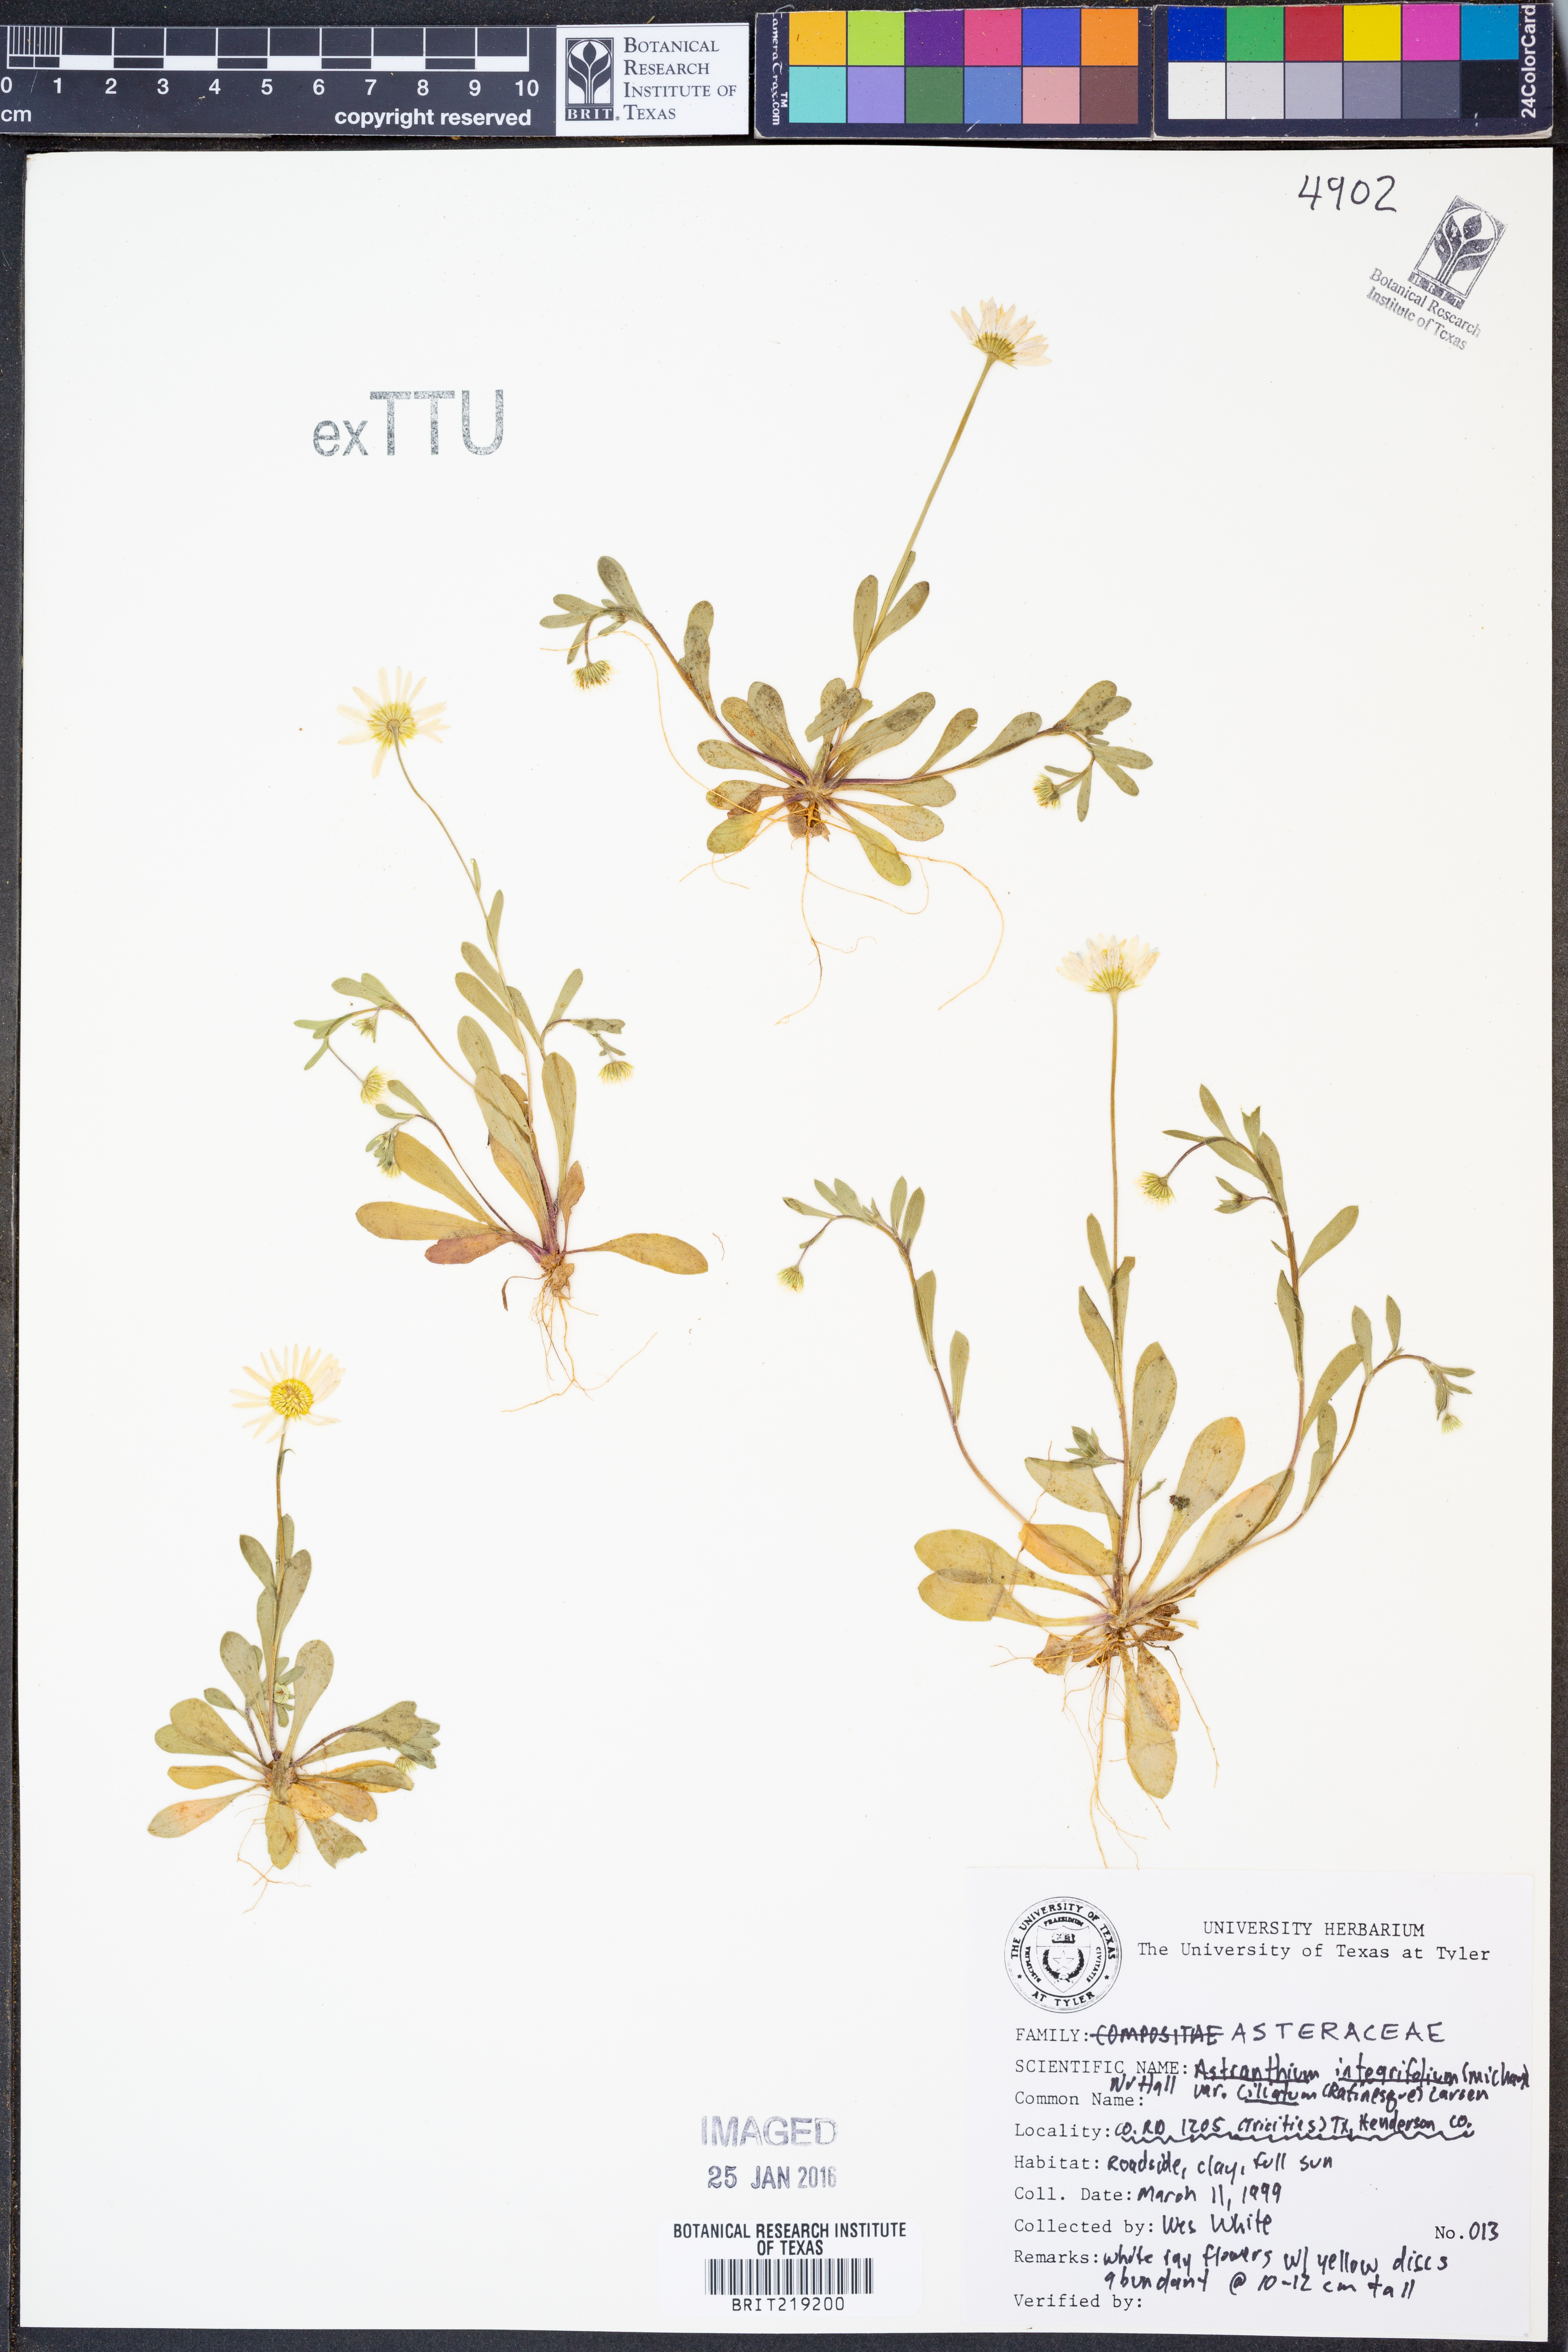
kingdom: Plantae
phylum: Tracheophyta
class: Magnoliopsida
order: Asterales
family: Asteraceae
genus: Astranthium
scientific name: Astranthium ciliatum
